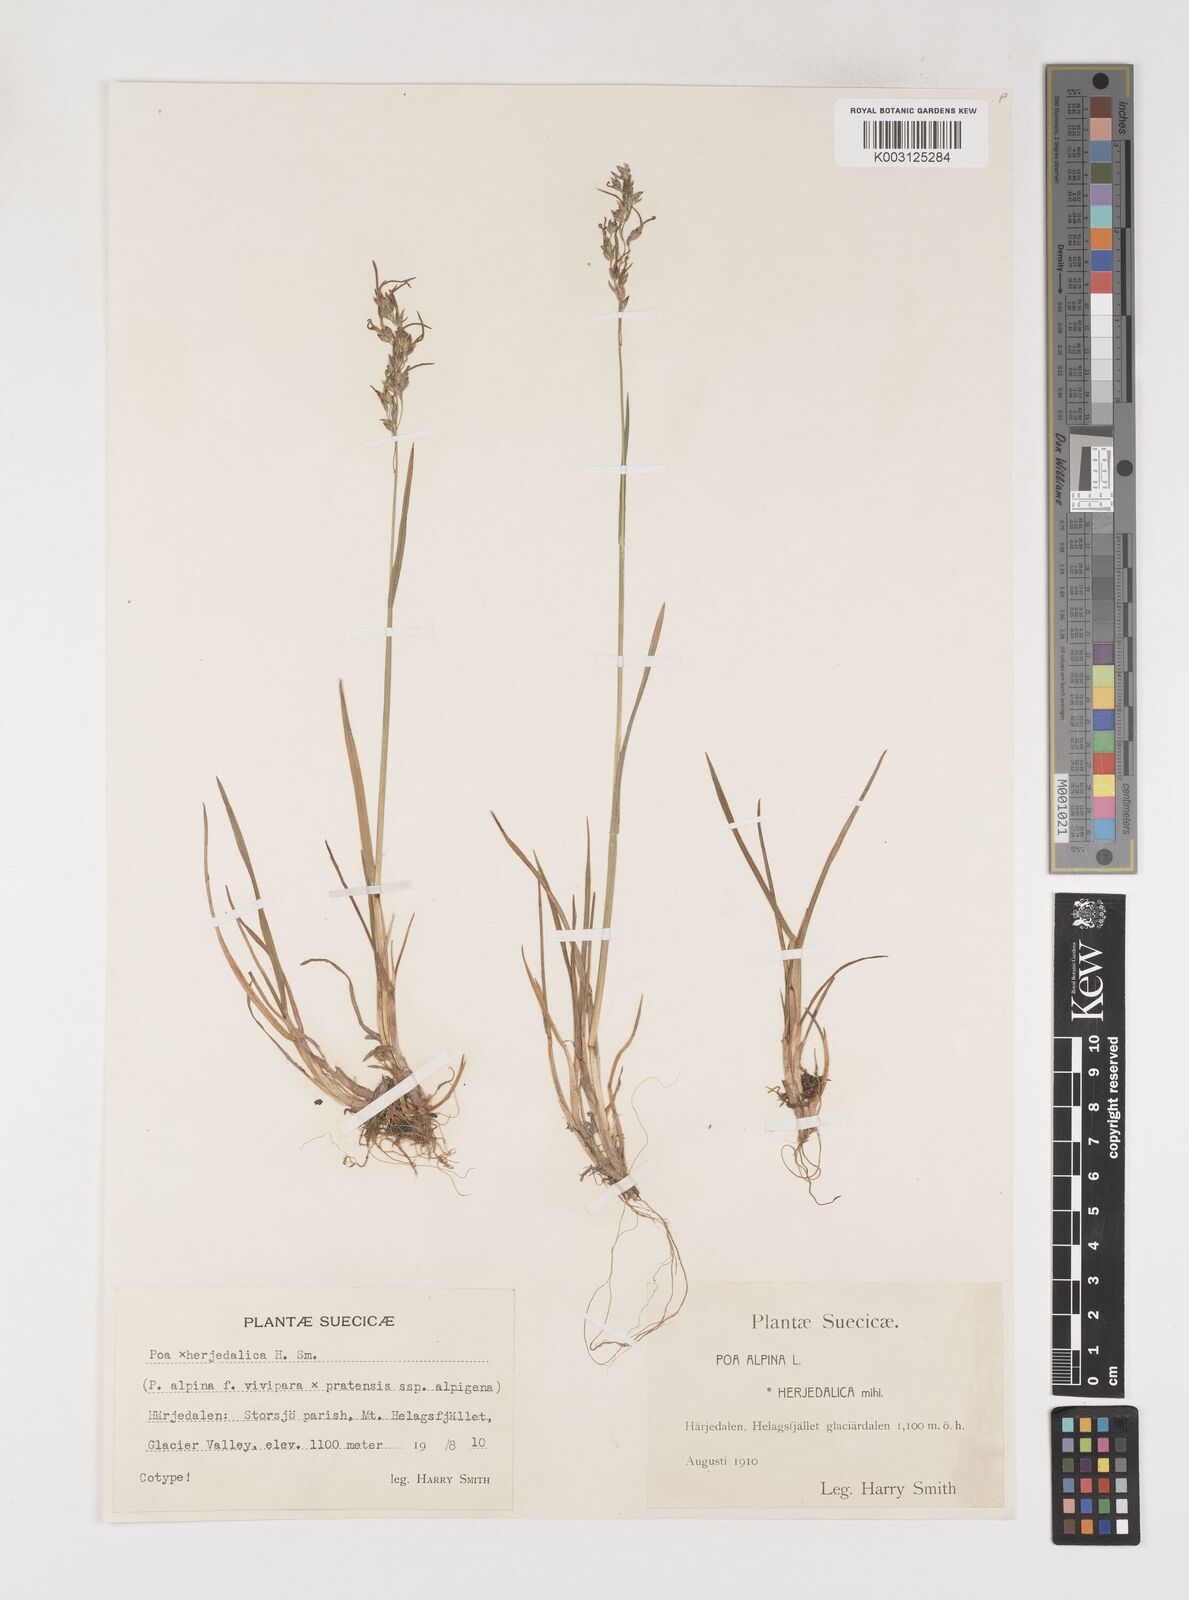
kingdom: Plantae
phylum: Tracheophyta
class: Liliopsida
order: Poales
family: Poaceae
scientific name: Poaceae
